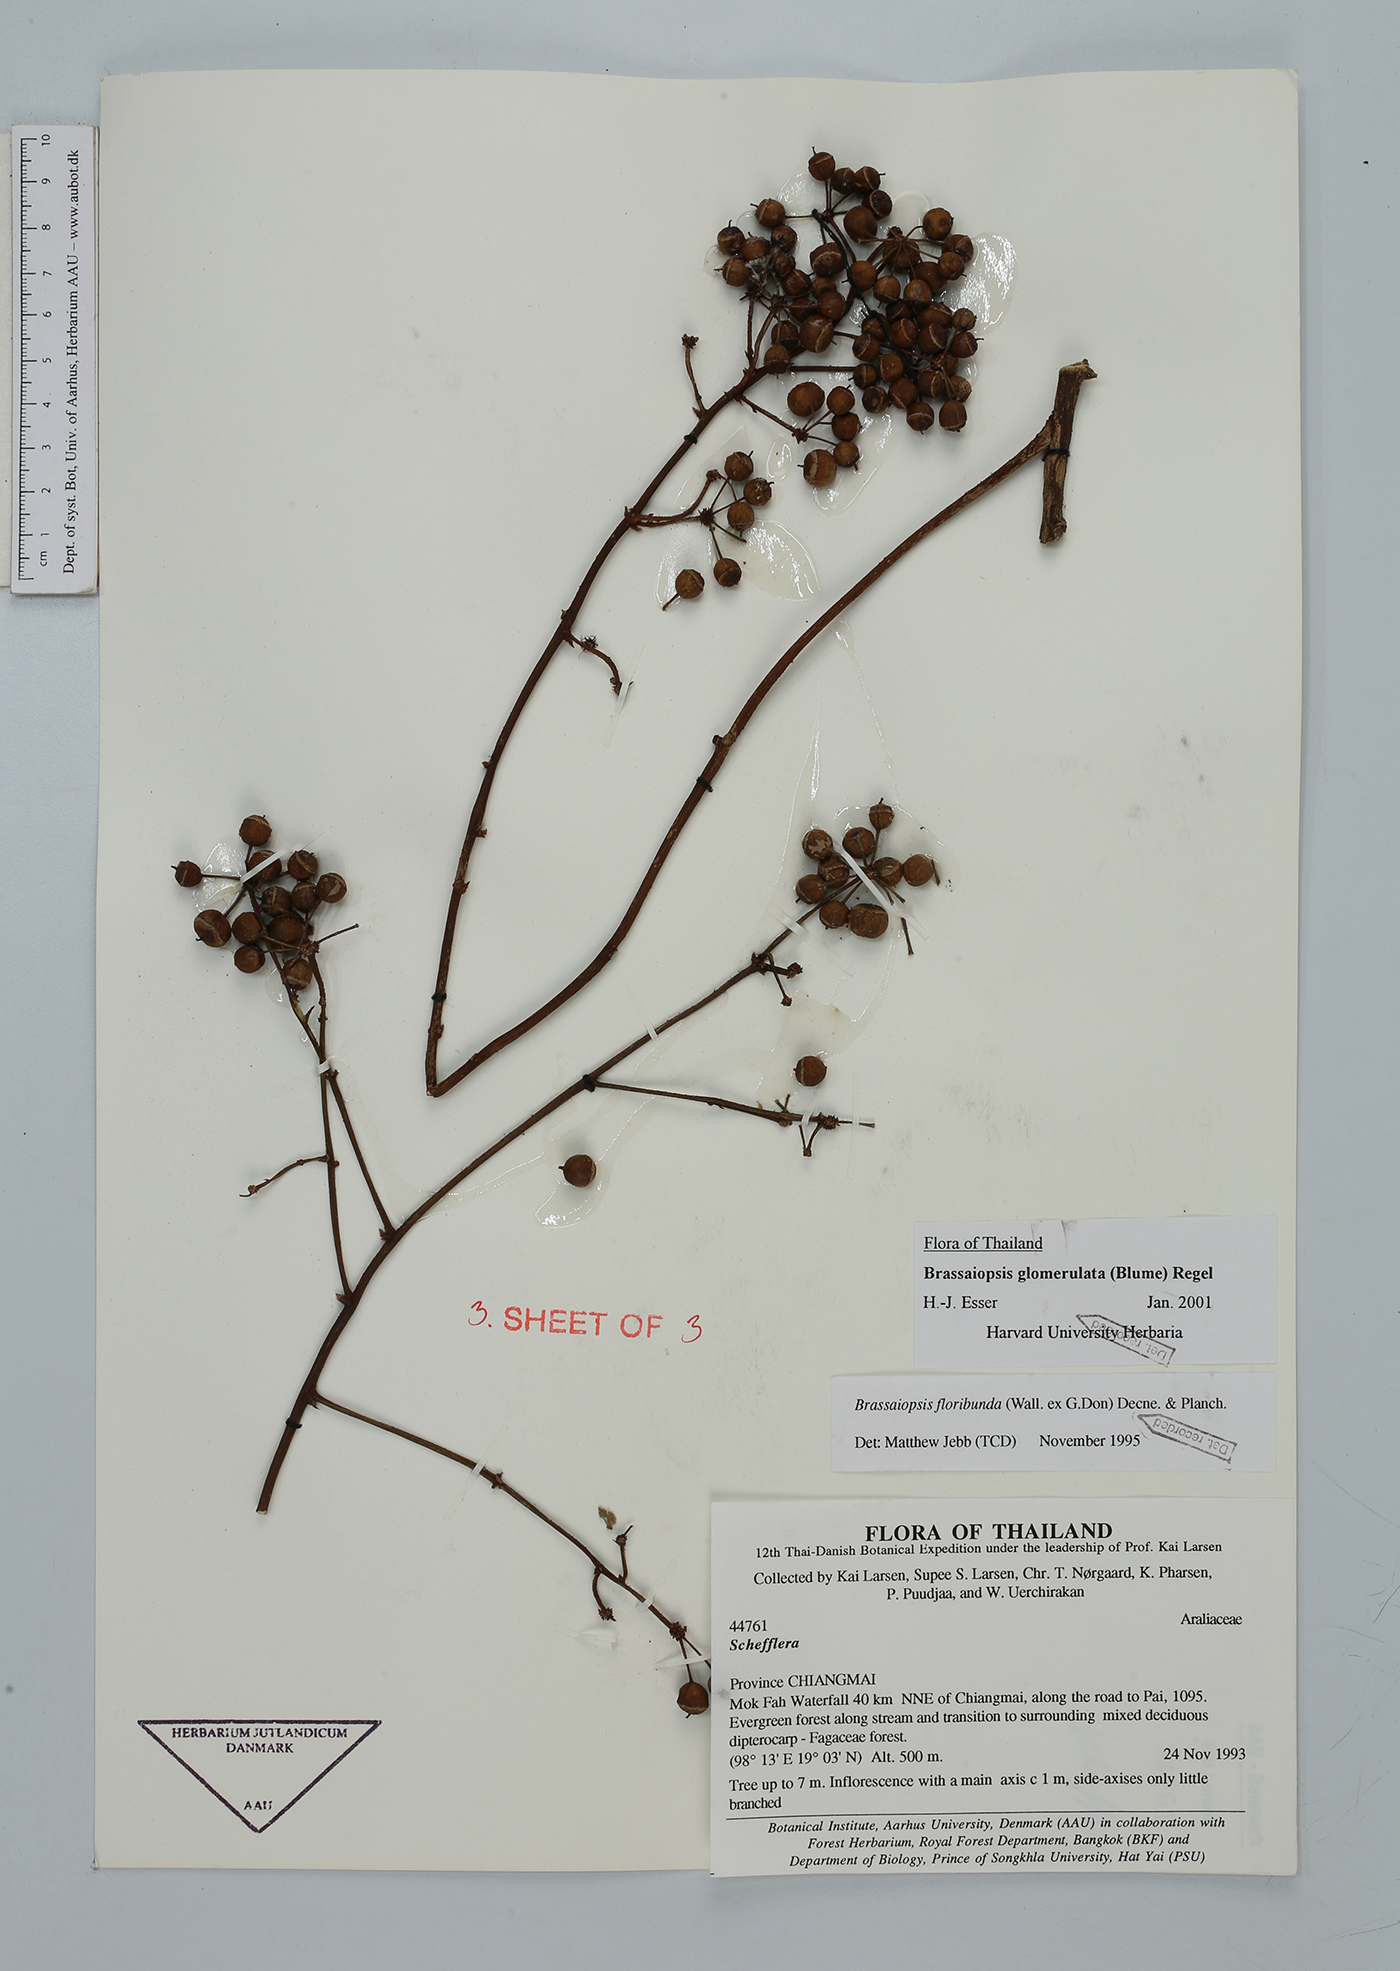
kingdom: Plantae
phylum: Tracheophyta
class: Magnoliopsida
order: Apiales
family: Araliaceae
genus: Brassaiopsis
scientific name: Brassaiopsis glomerulata
